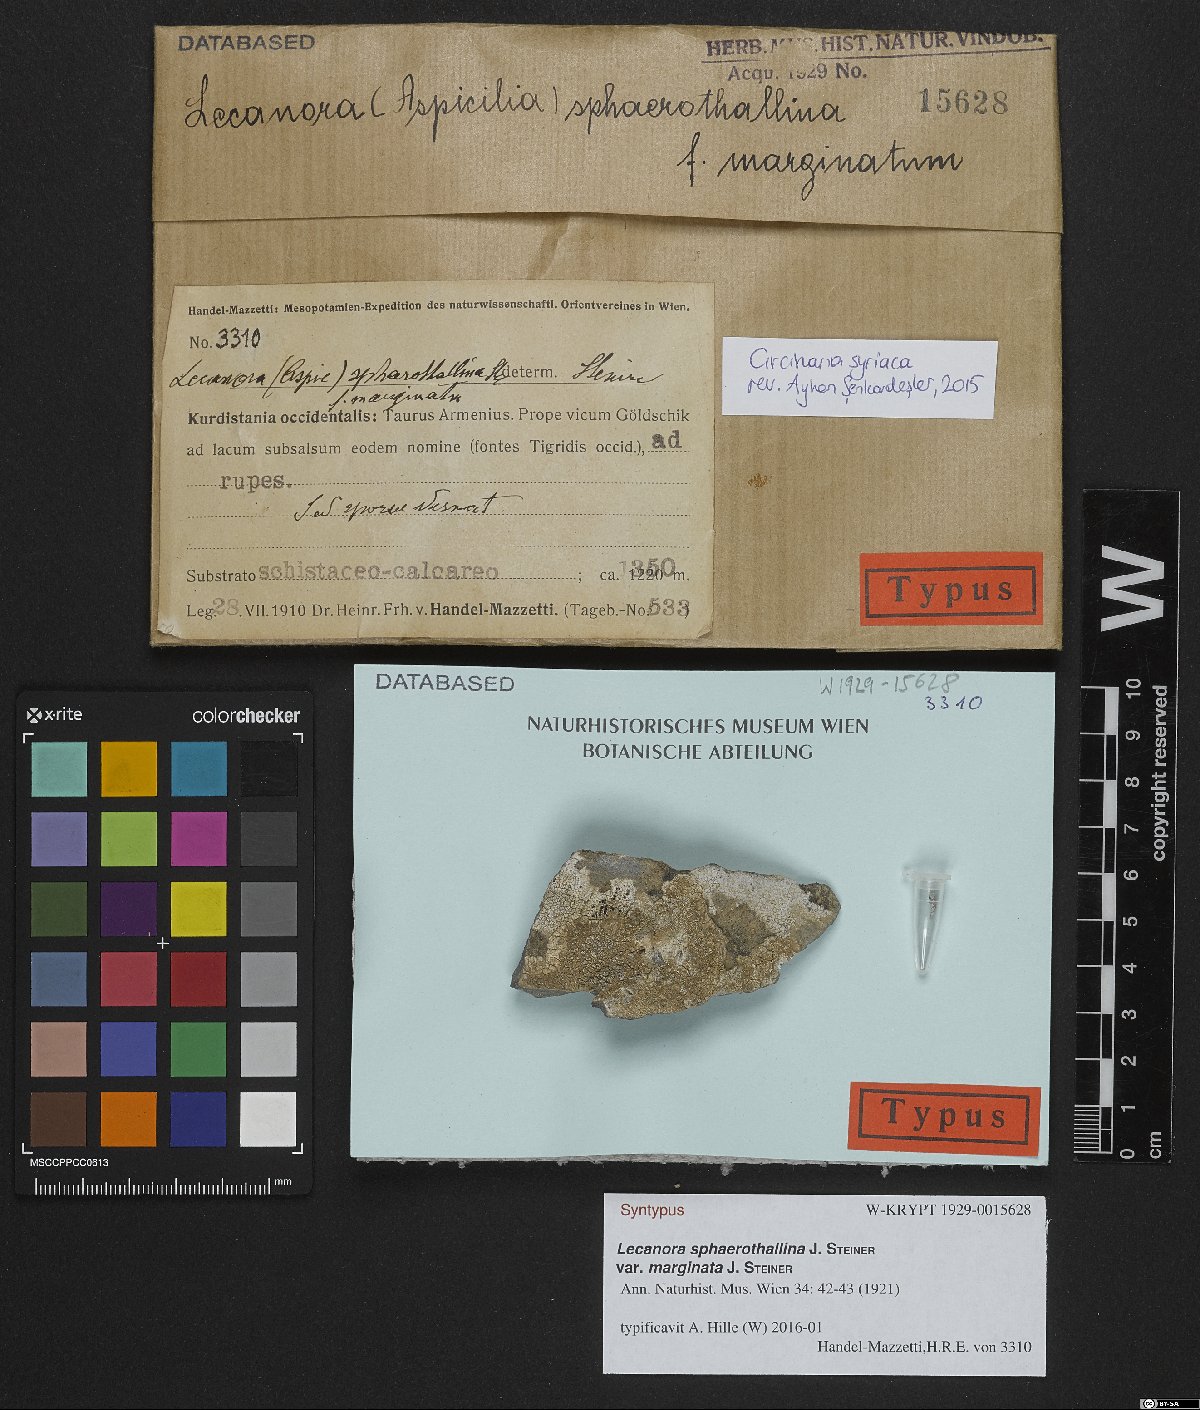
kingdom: Fungi
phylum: Ascomycota
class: Lecanoromycetes
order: Lecanorales
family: Lecanoraceae
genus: Chlorangium
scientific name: Chlorangium sphaerothallinum
